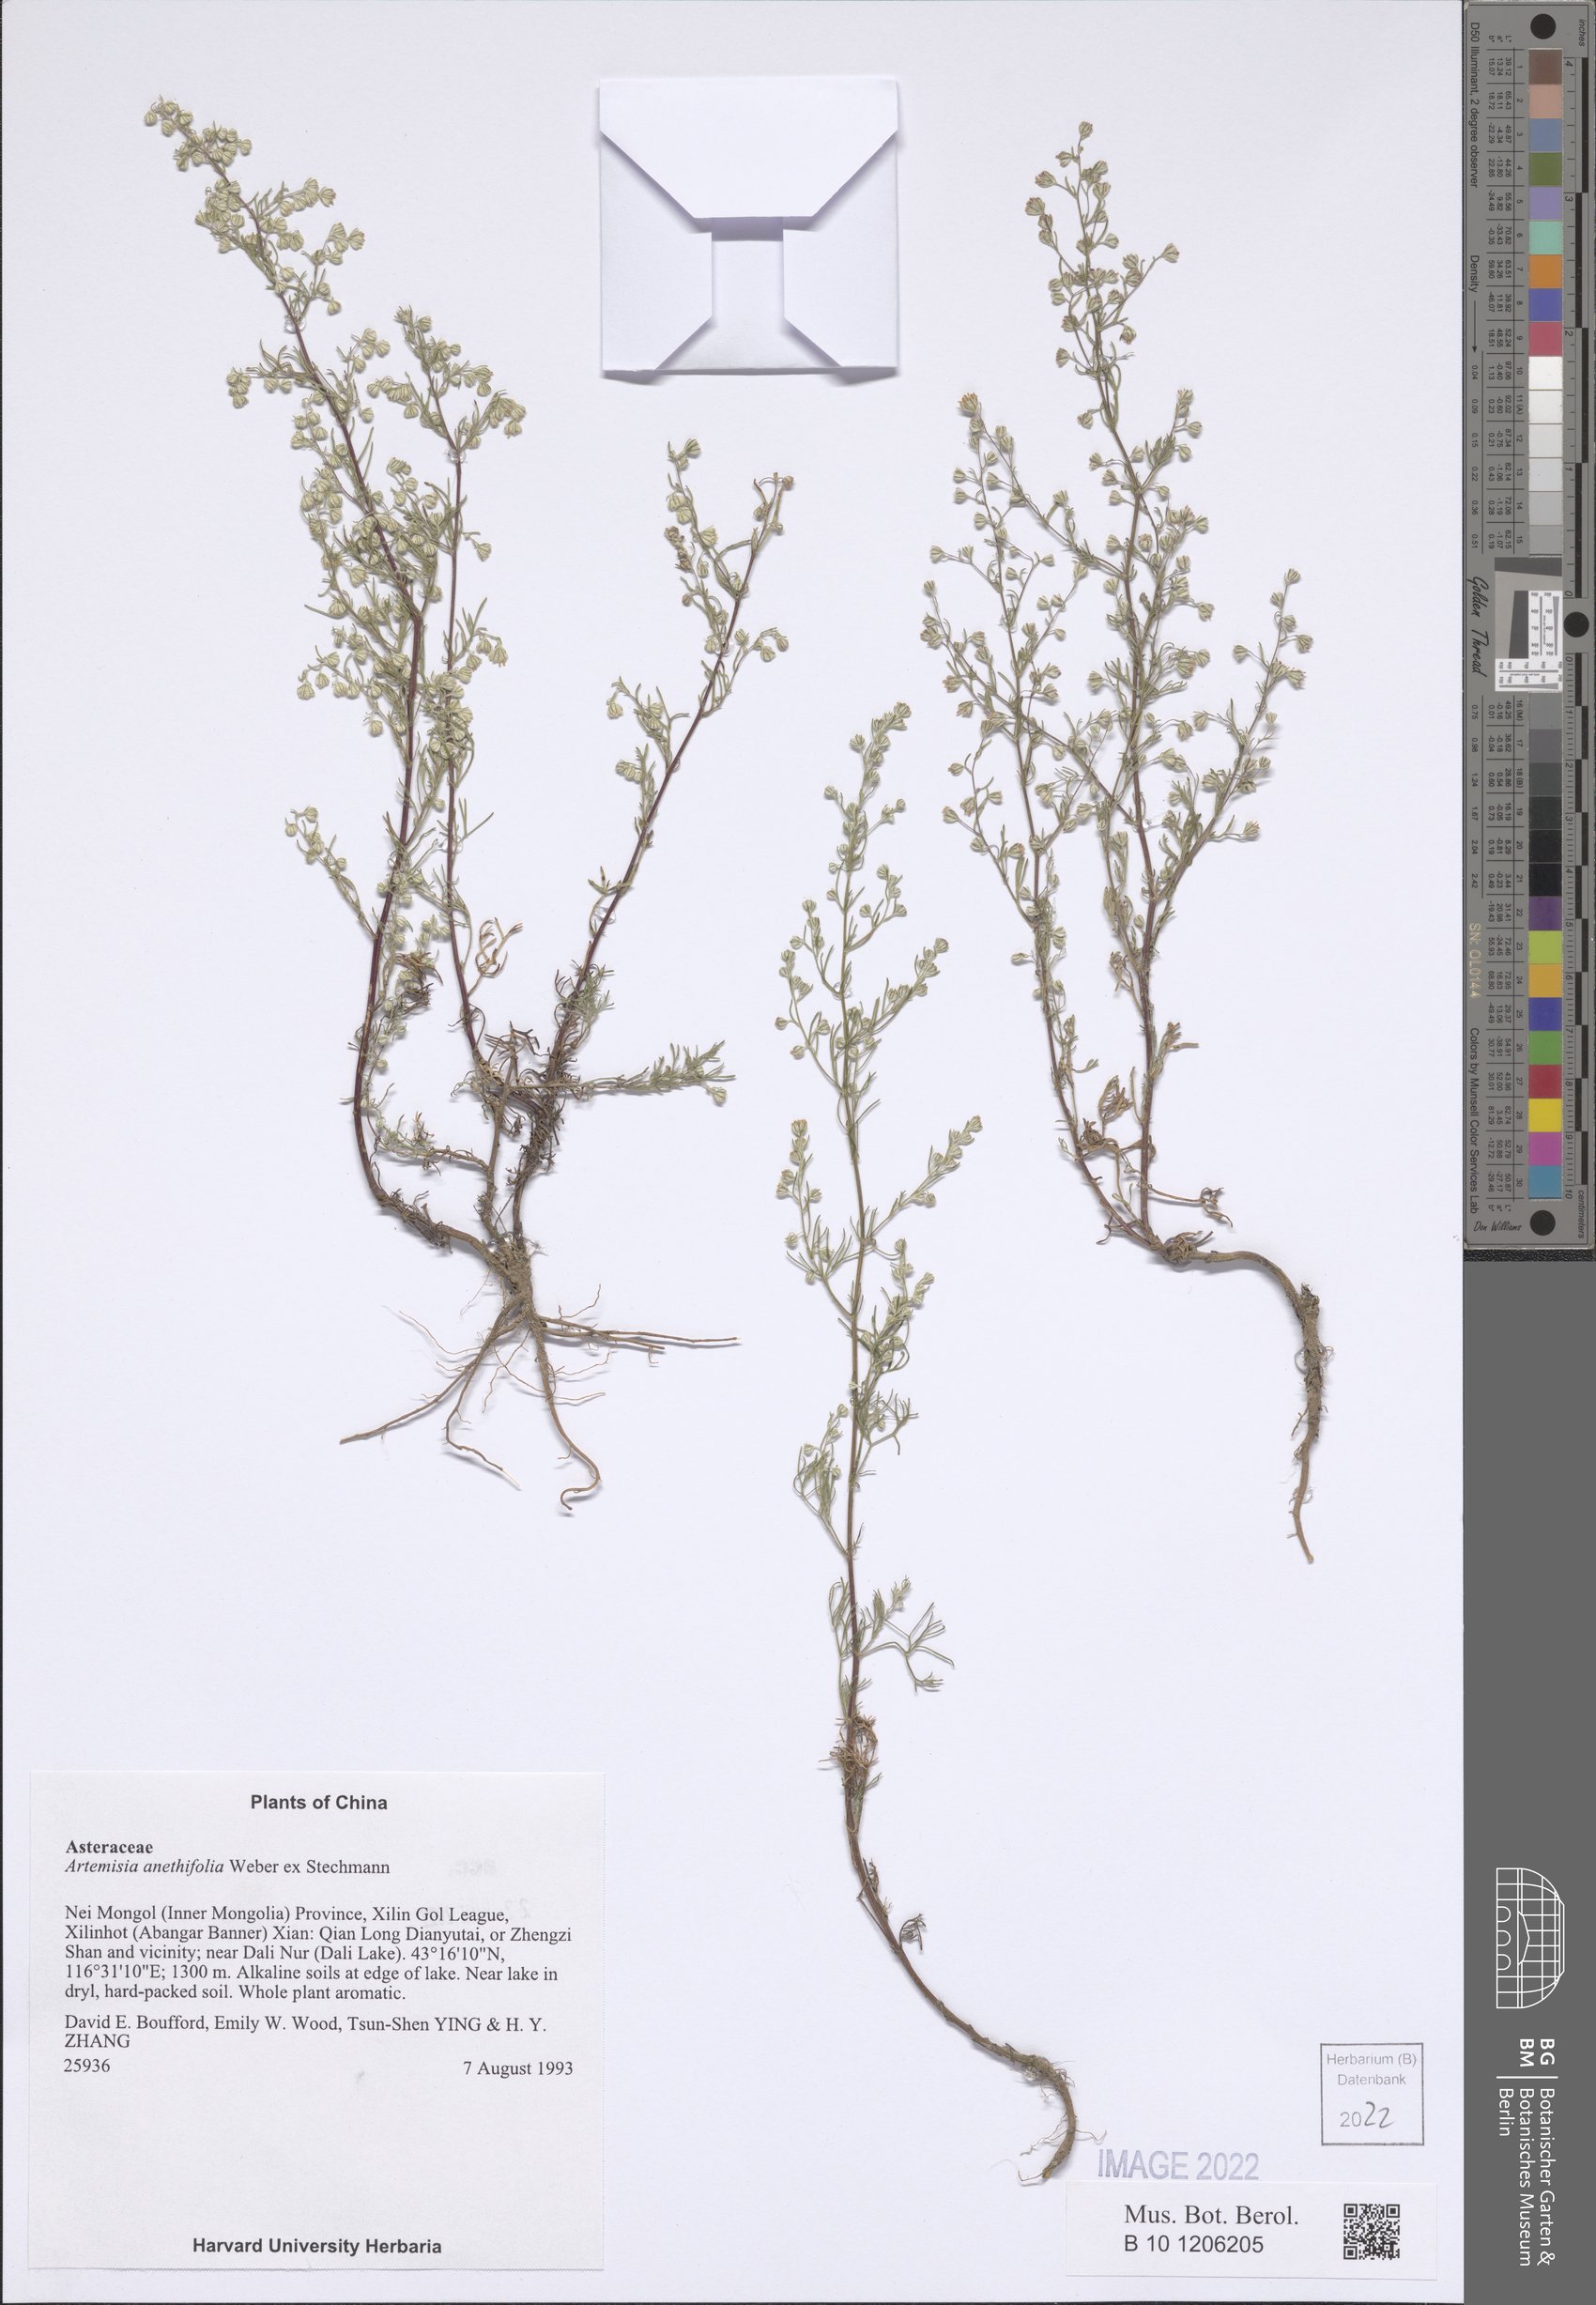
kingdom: Plantae
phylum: Tracheophyta
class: Magnoliopsida
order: Asterales
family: Asteraceae
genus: Artemisia
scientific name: Artemisia anethifolia
